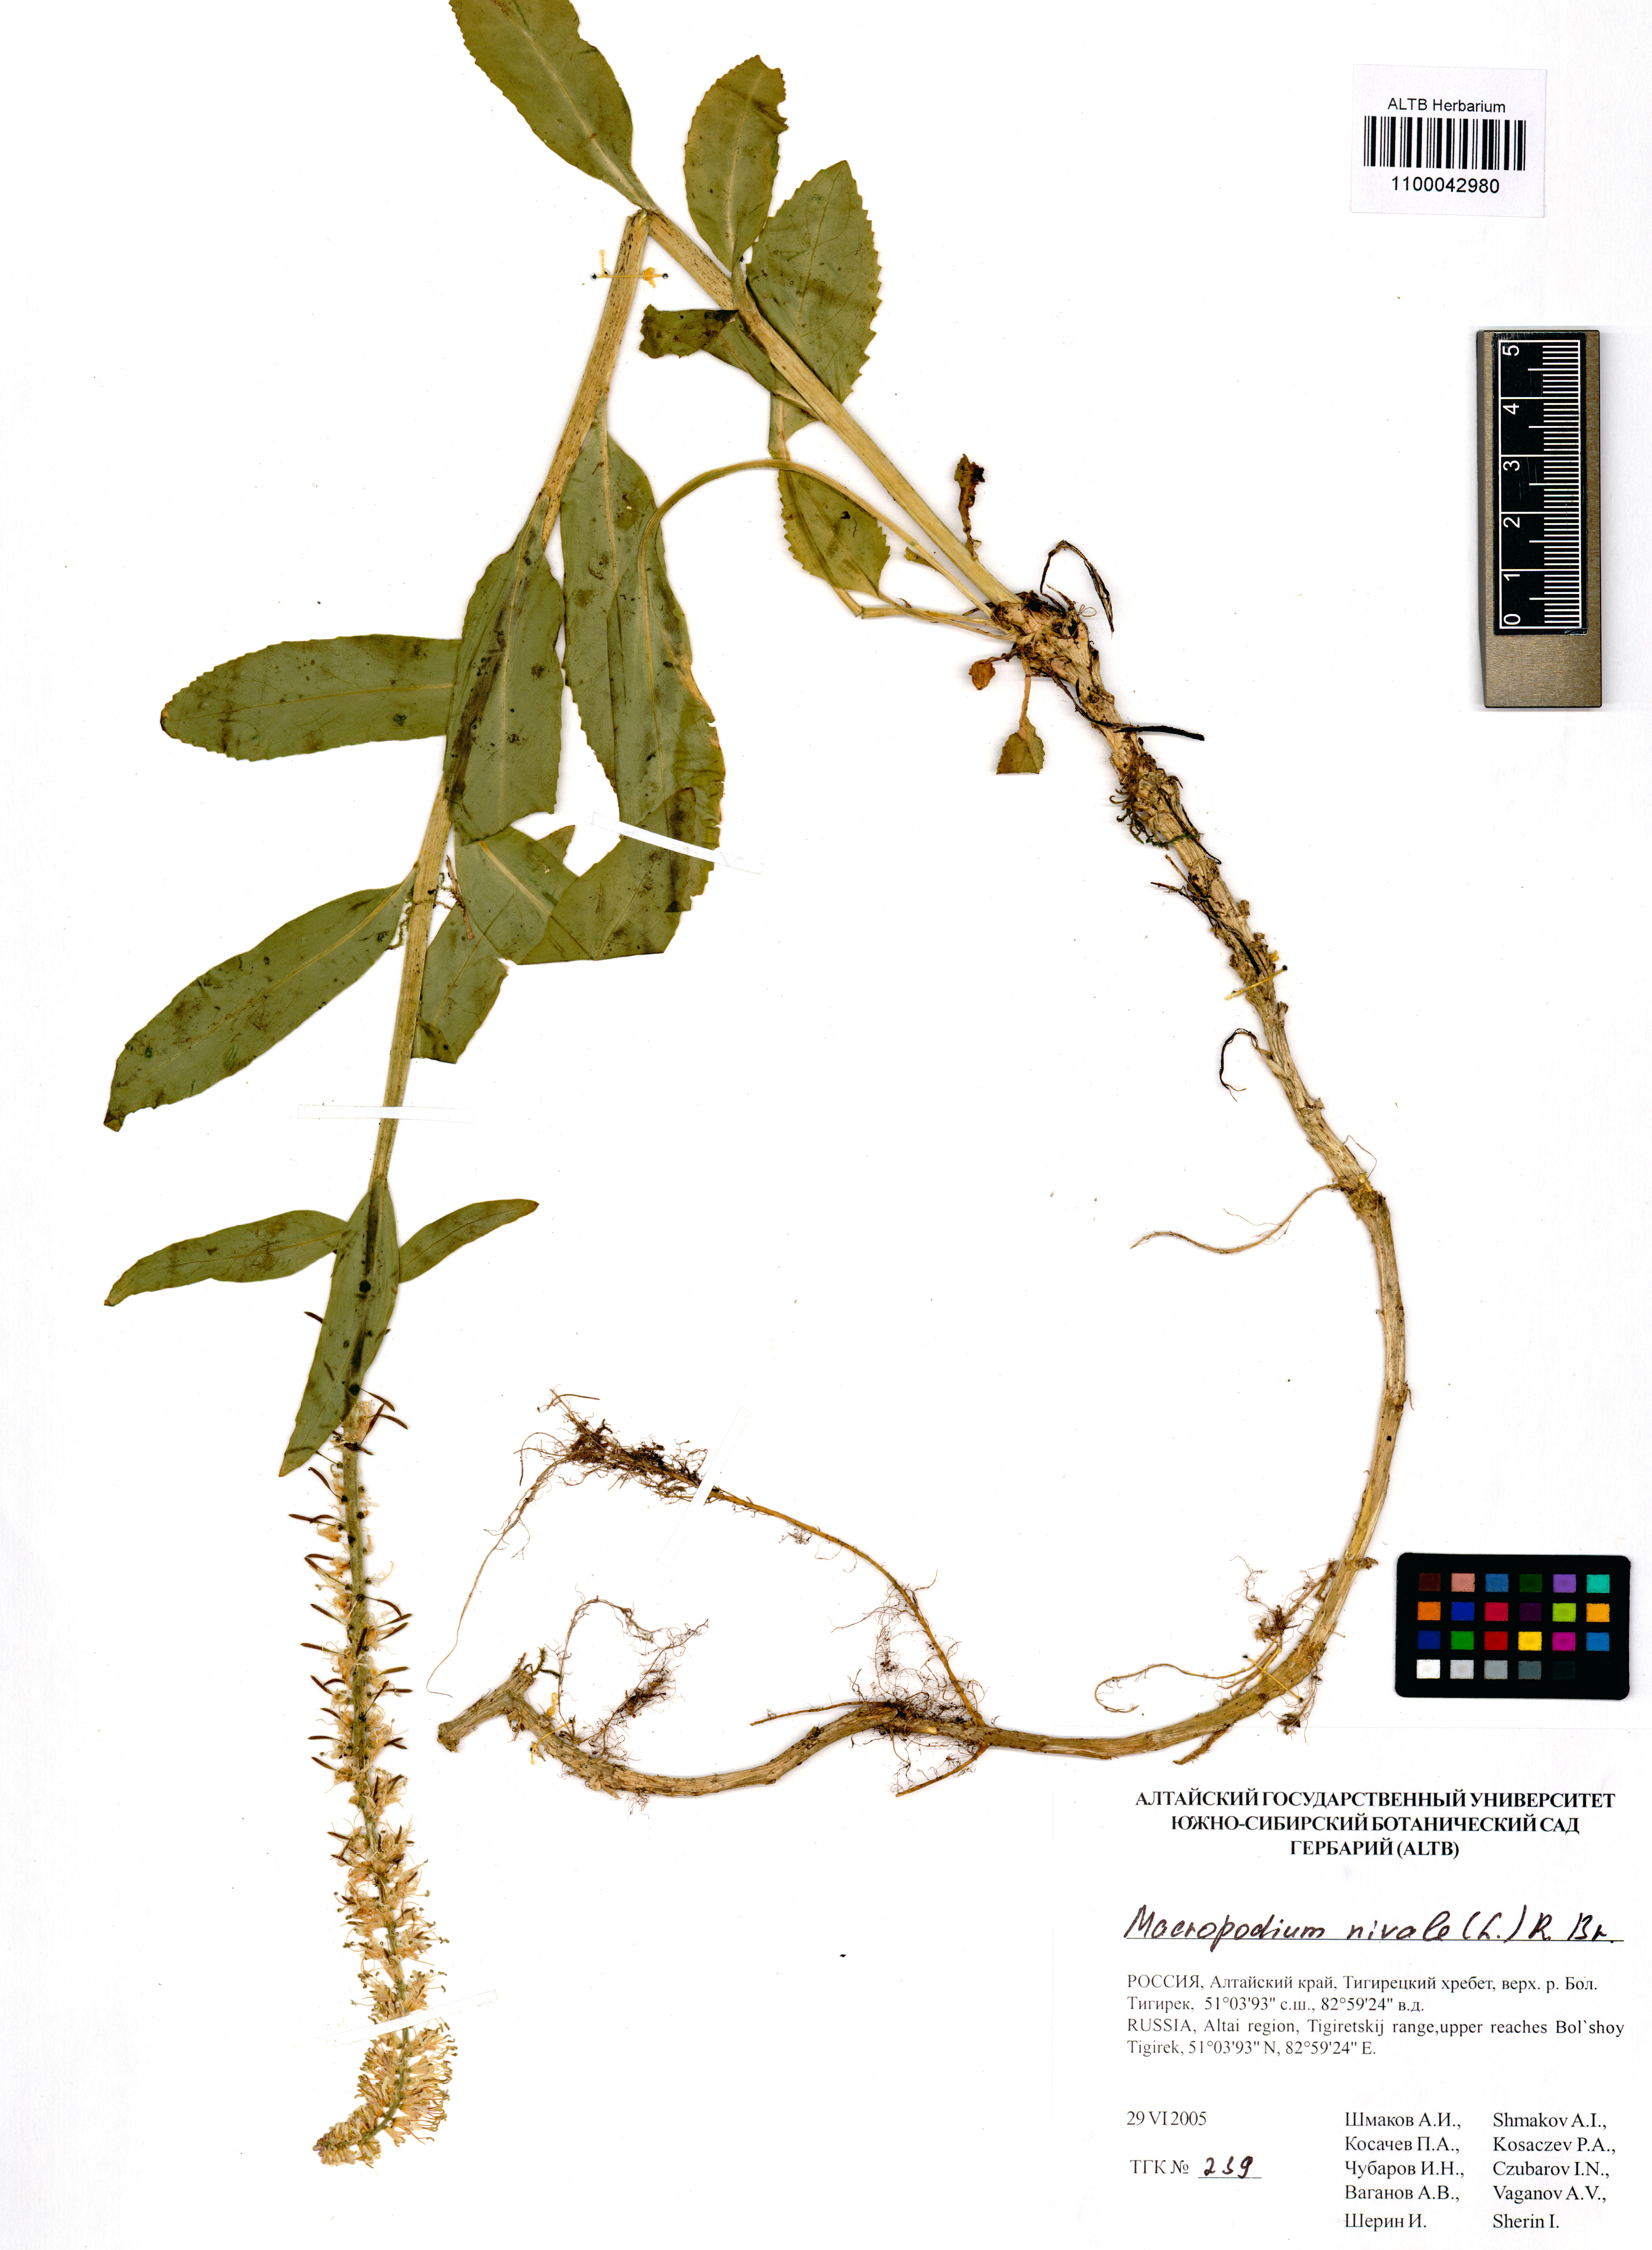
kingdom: Plantae
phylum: Tracheophyta
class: Magnoliopsida
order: Brassicales
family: Brassicaceae
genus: Macropodium
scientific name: Macropodium nivale
